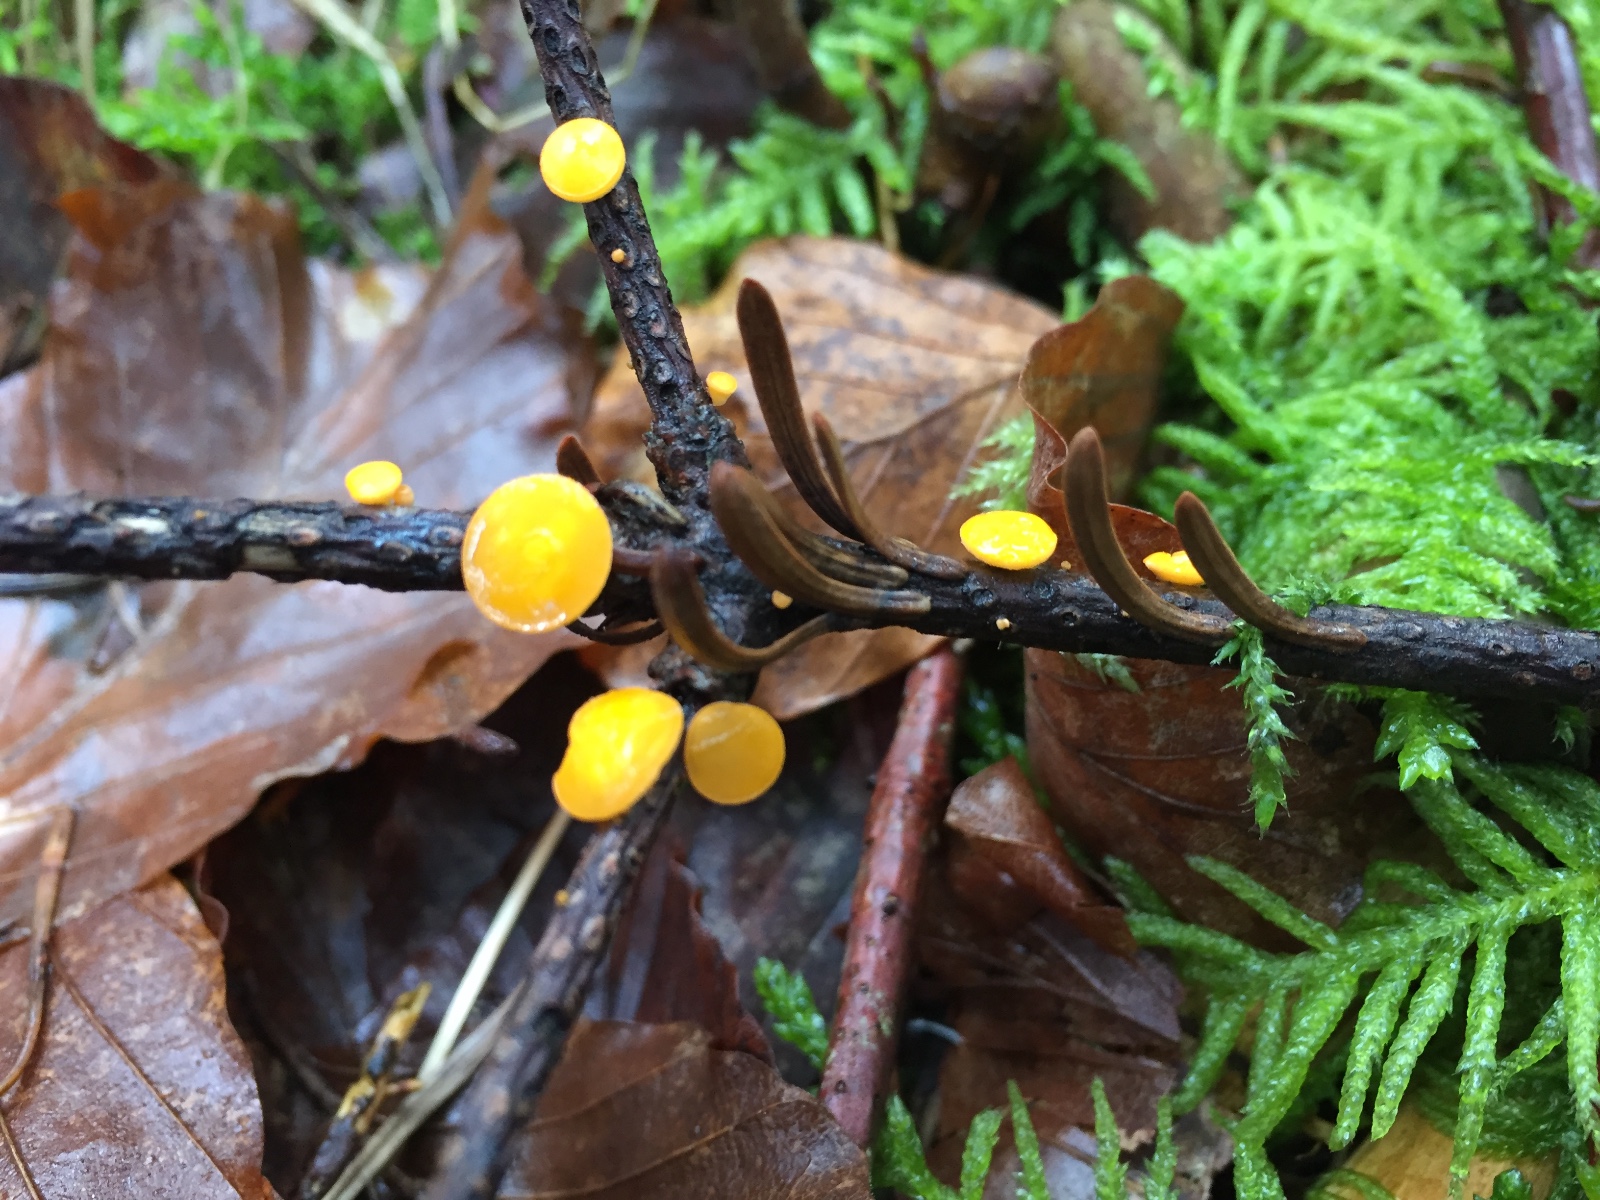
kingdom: Fungi
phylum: Ascomycota
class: Pezizomycetes
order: Pezizales
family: Sarcoscyphaceae
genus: Pithya
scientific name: Pithya vulgaris
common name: stor dukatbæger
